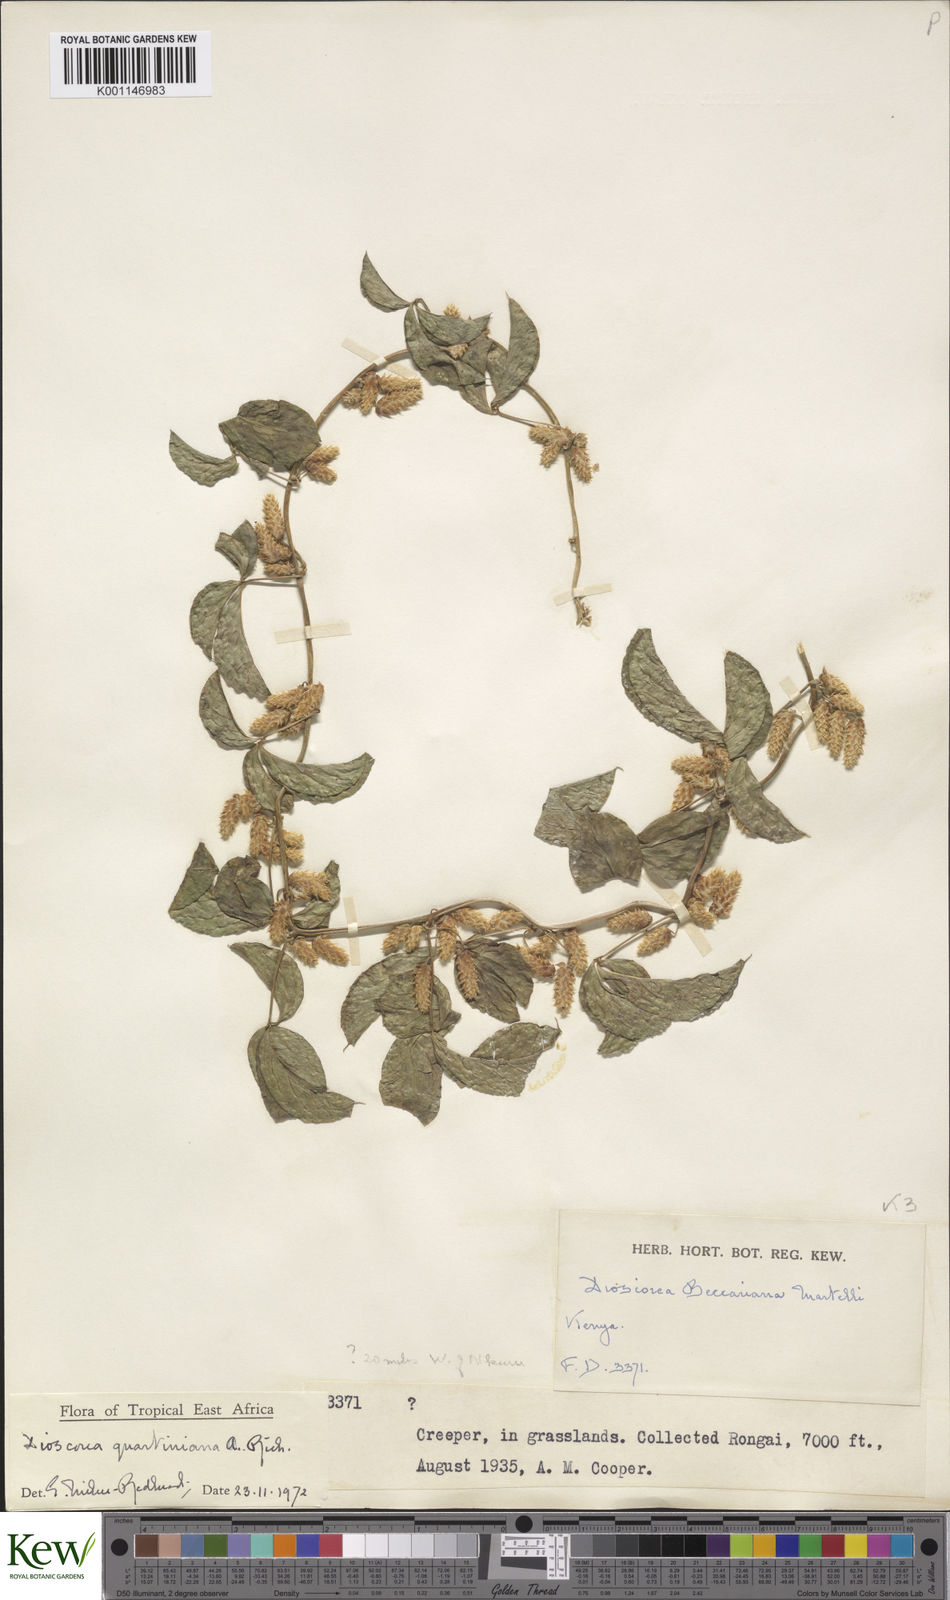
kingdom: Plantae
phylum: Tracheophyta
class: Liliopsida
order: Dioscoreales
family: Dioscoreaceae
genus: Dioscorea
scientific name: Dioscorea quartiniana
